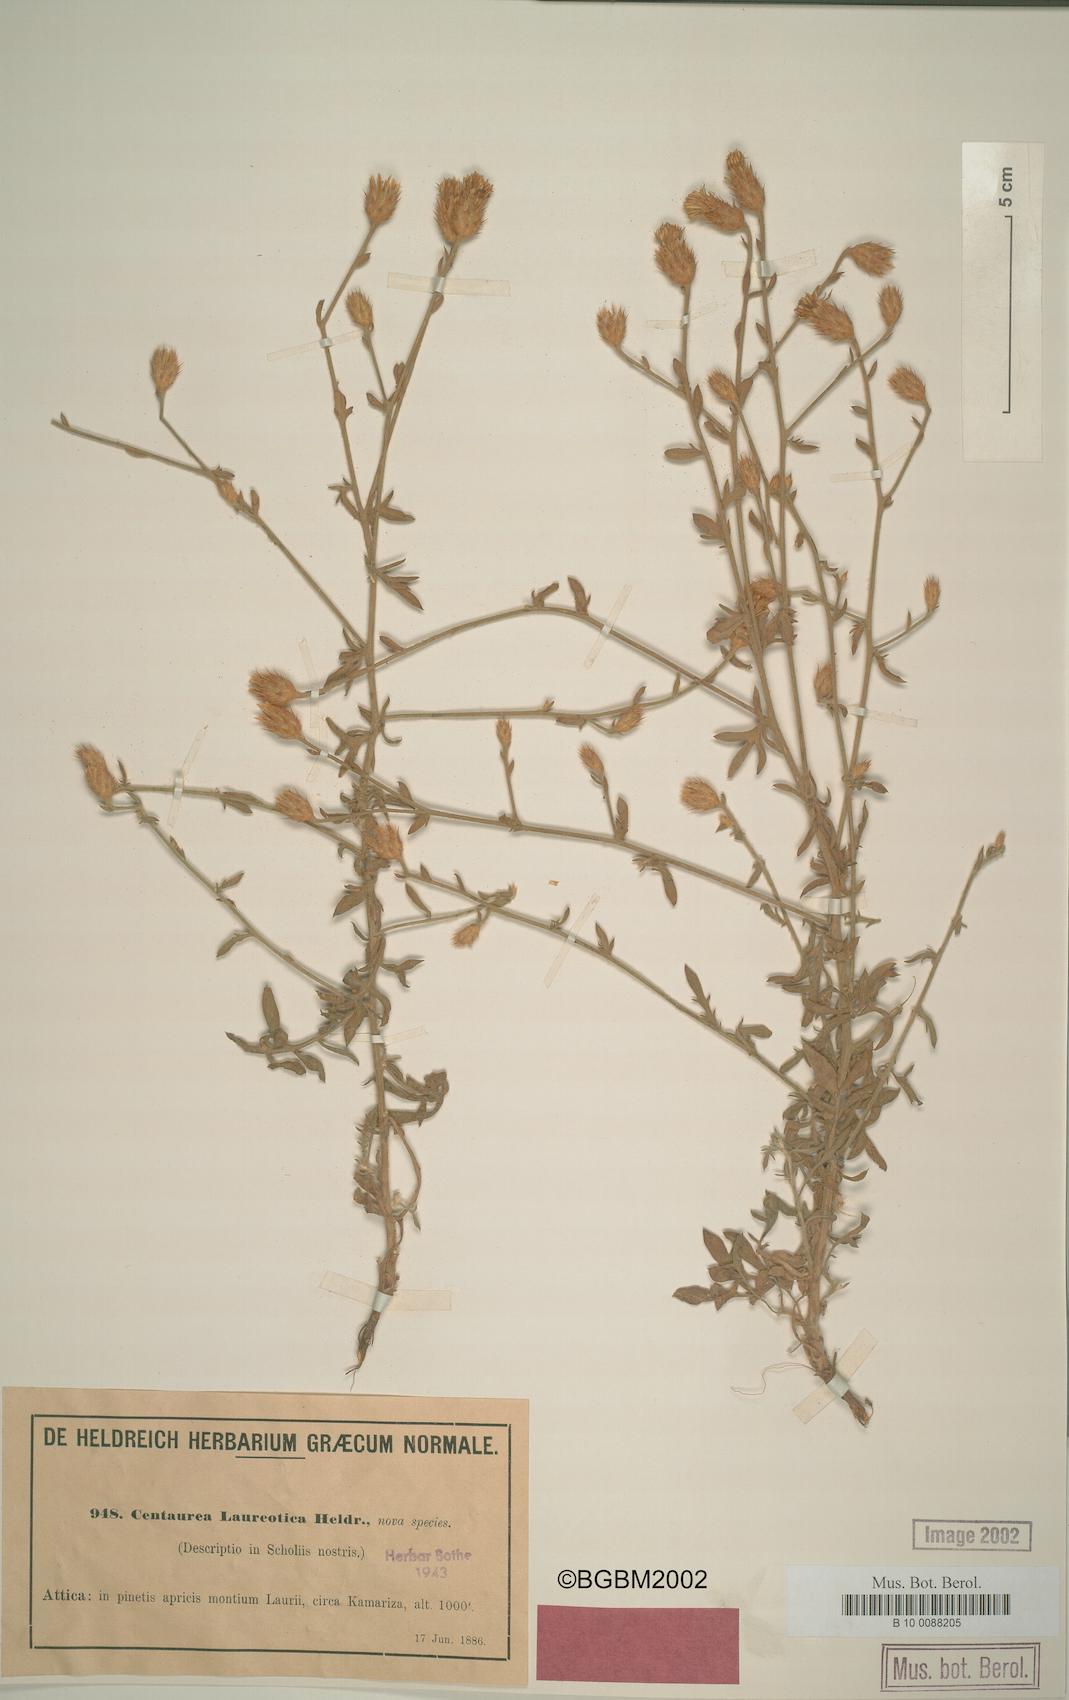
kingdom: Plantae
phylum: Tracheophyta
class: Magnoliopsida
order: Asterales
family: Asteraceae
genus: Centaurea
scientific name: Centaurea laureotica
